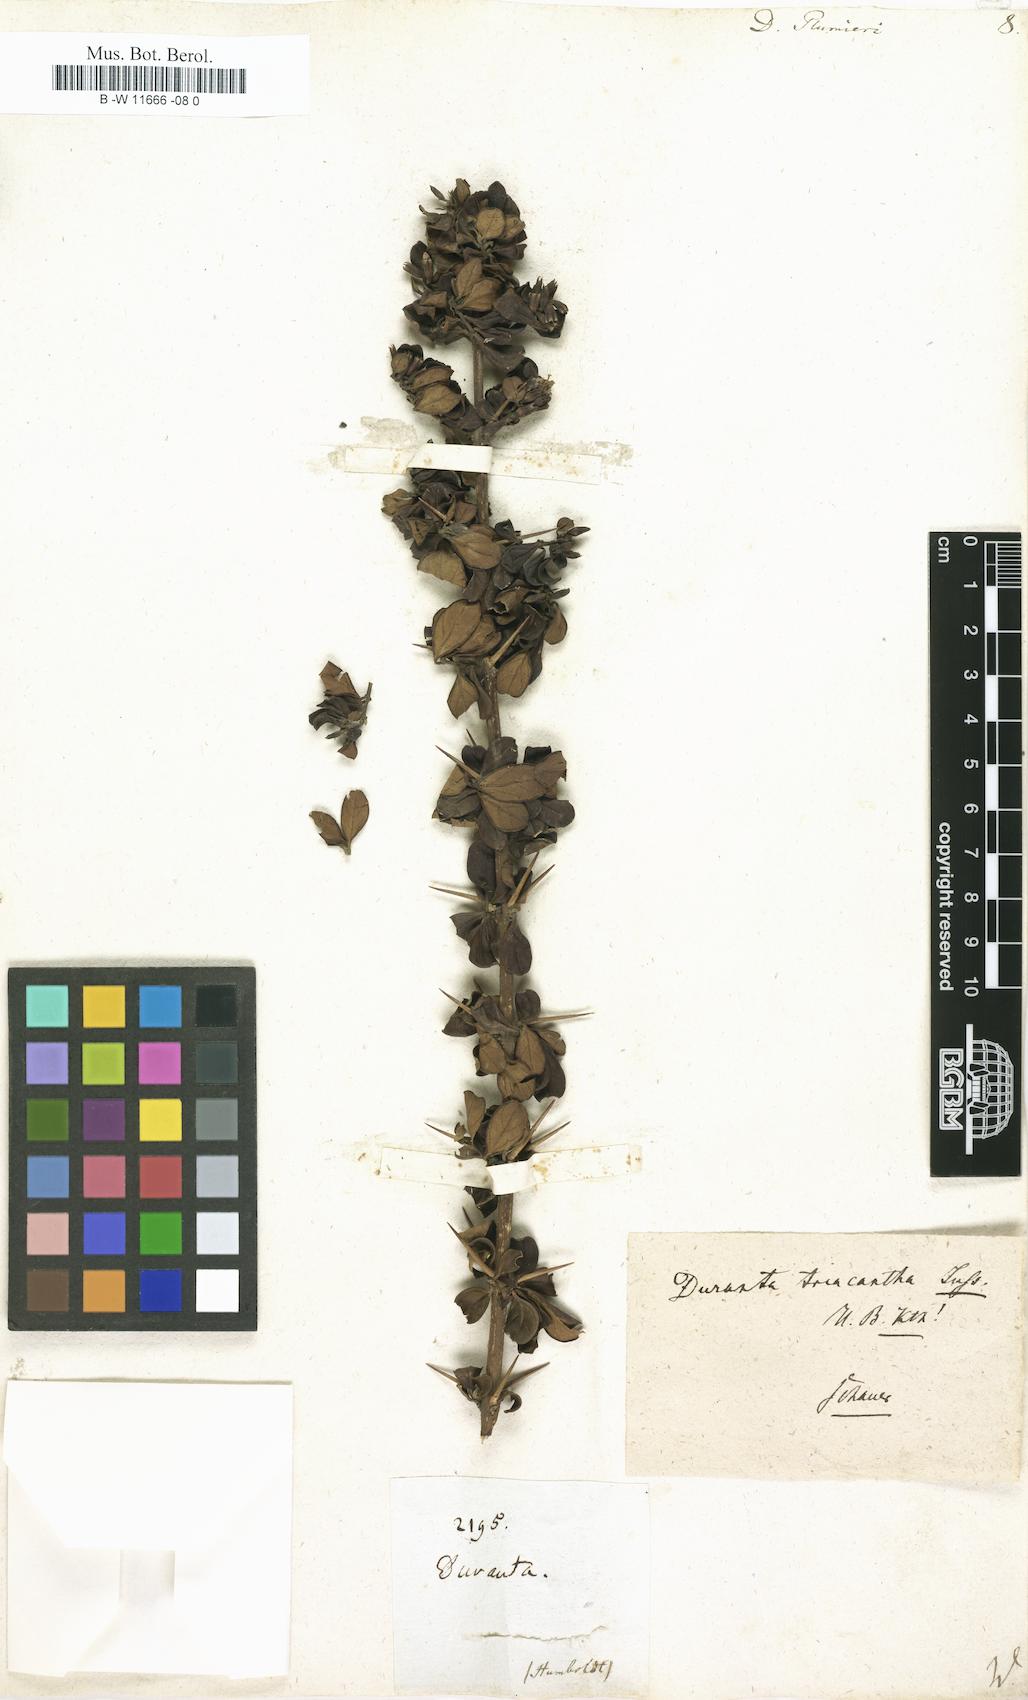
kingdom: Plantae
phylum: Tracheophyta
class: Magnoliopsida
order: Lamiales
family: Verbenaceae
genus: Duranta
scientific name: Duranta erecta
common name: Golden dewdrops
